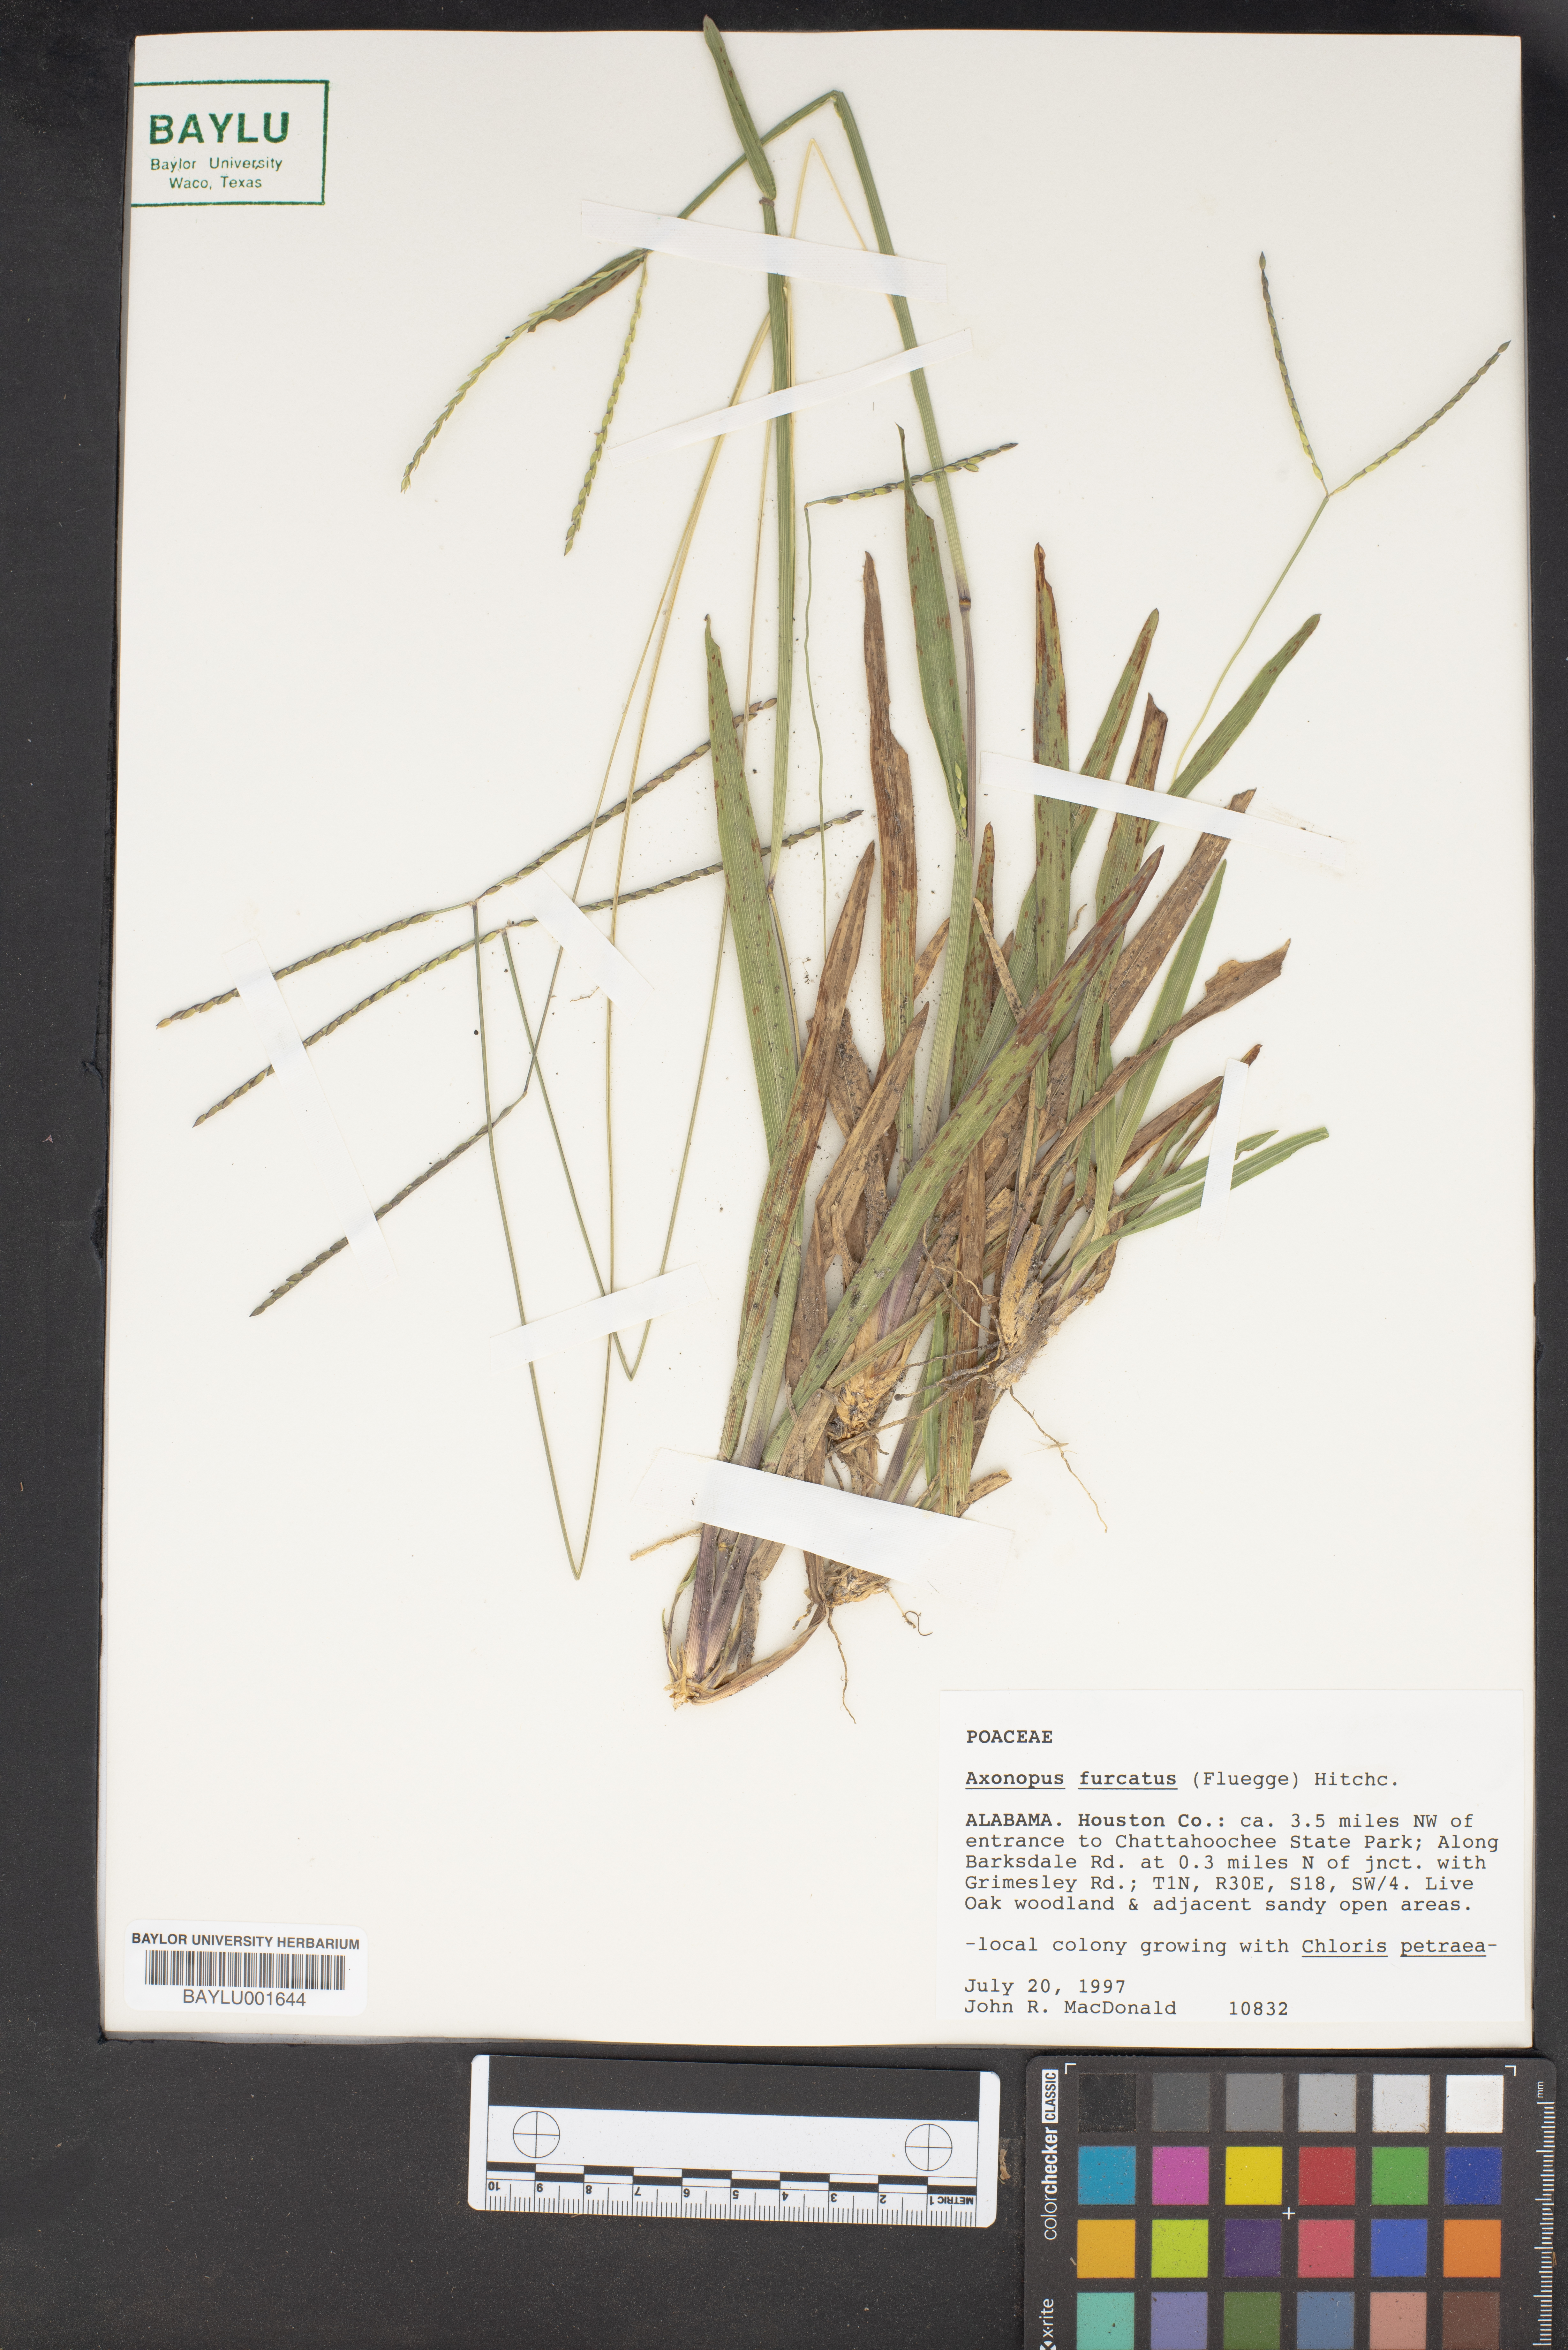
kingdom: Plantae
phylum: Tracheophyta
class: Liliopsida
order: Poales
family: Poaceae
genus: Axonopus
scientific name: Axonopus furcatus
